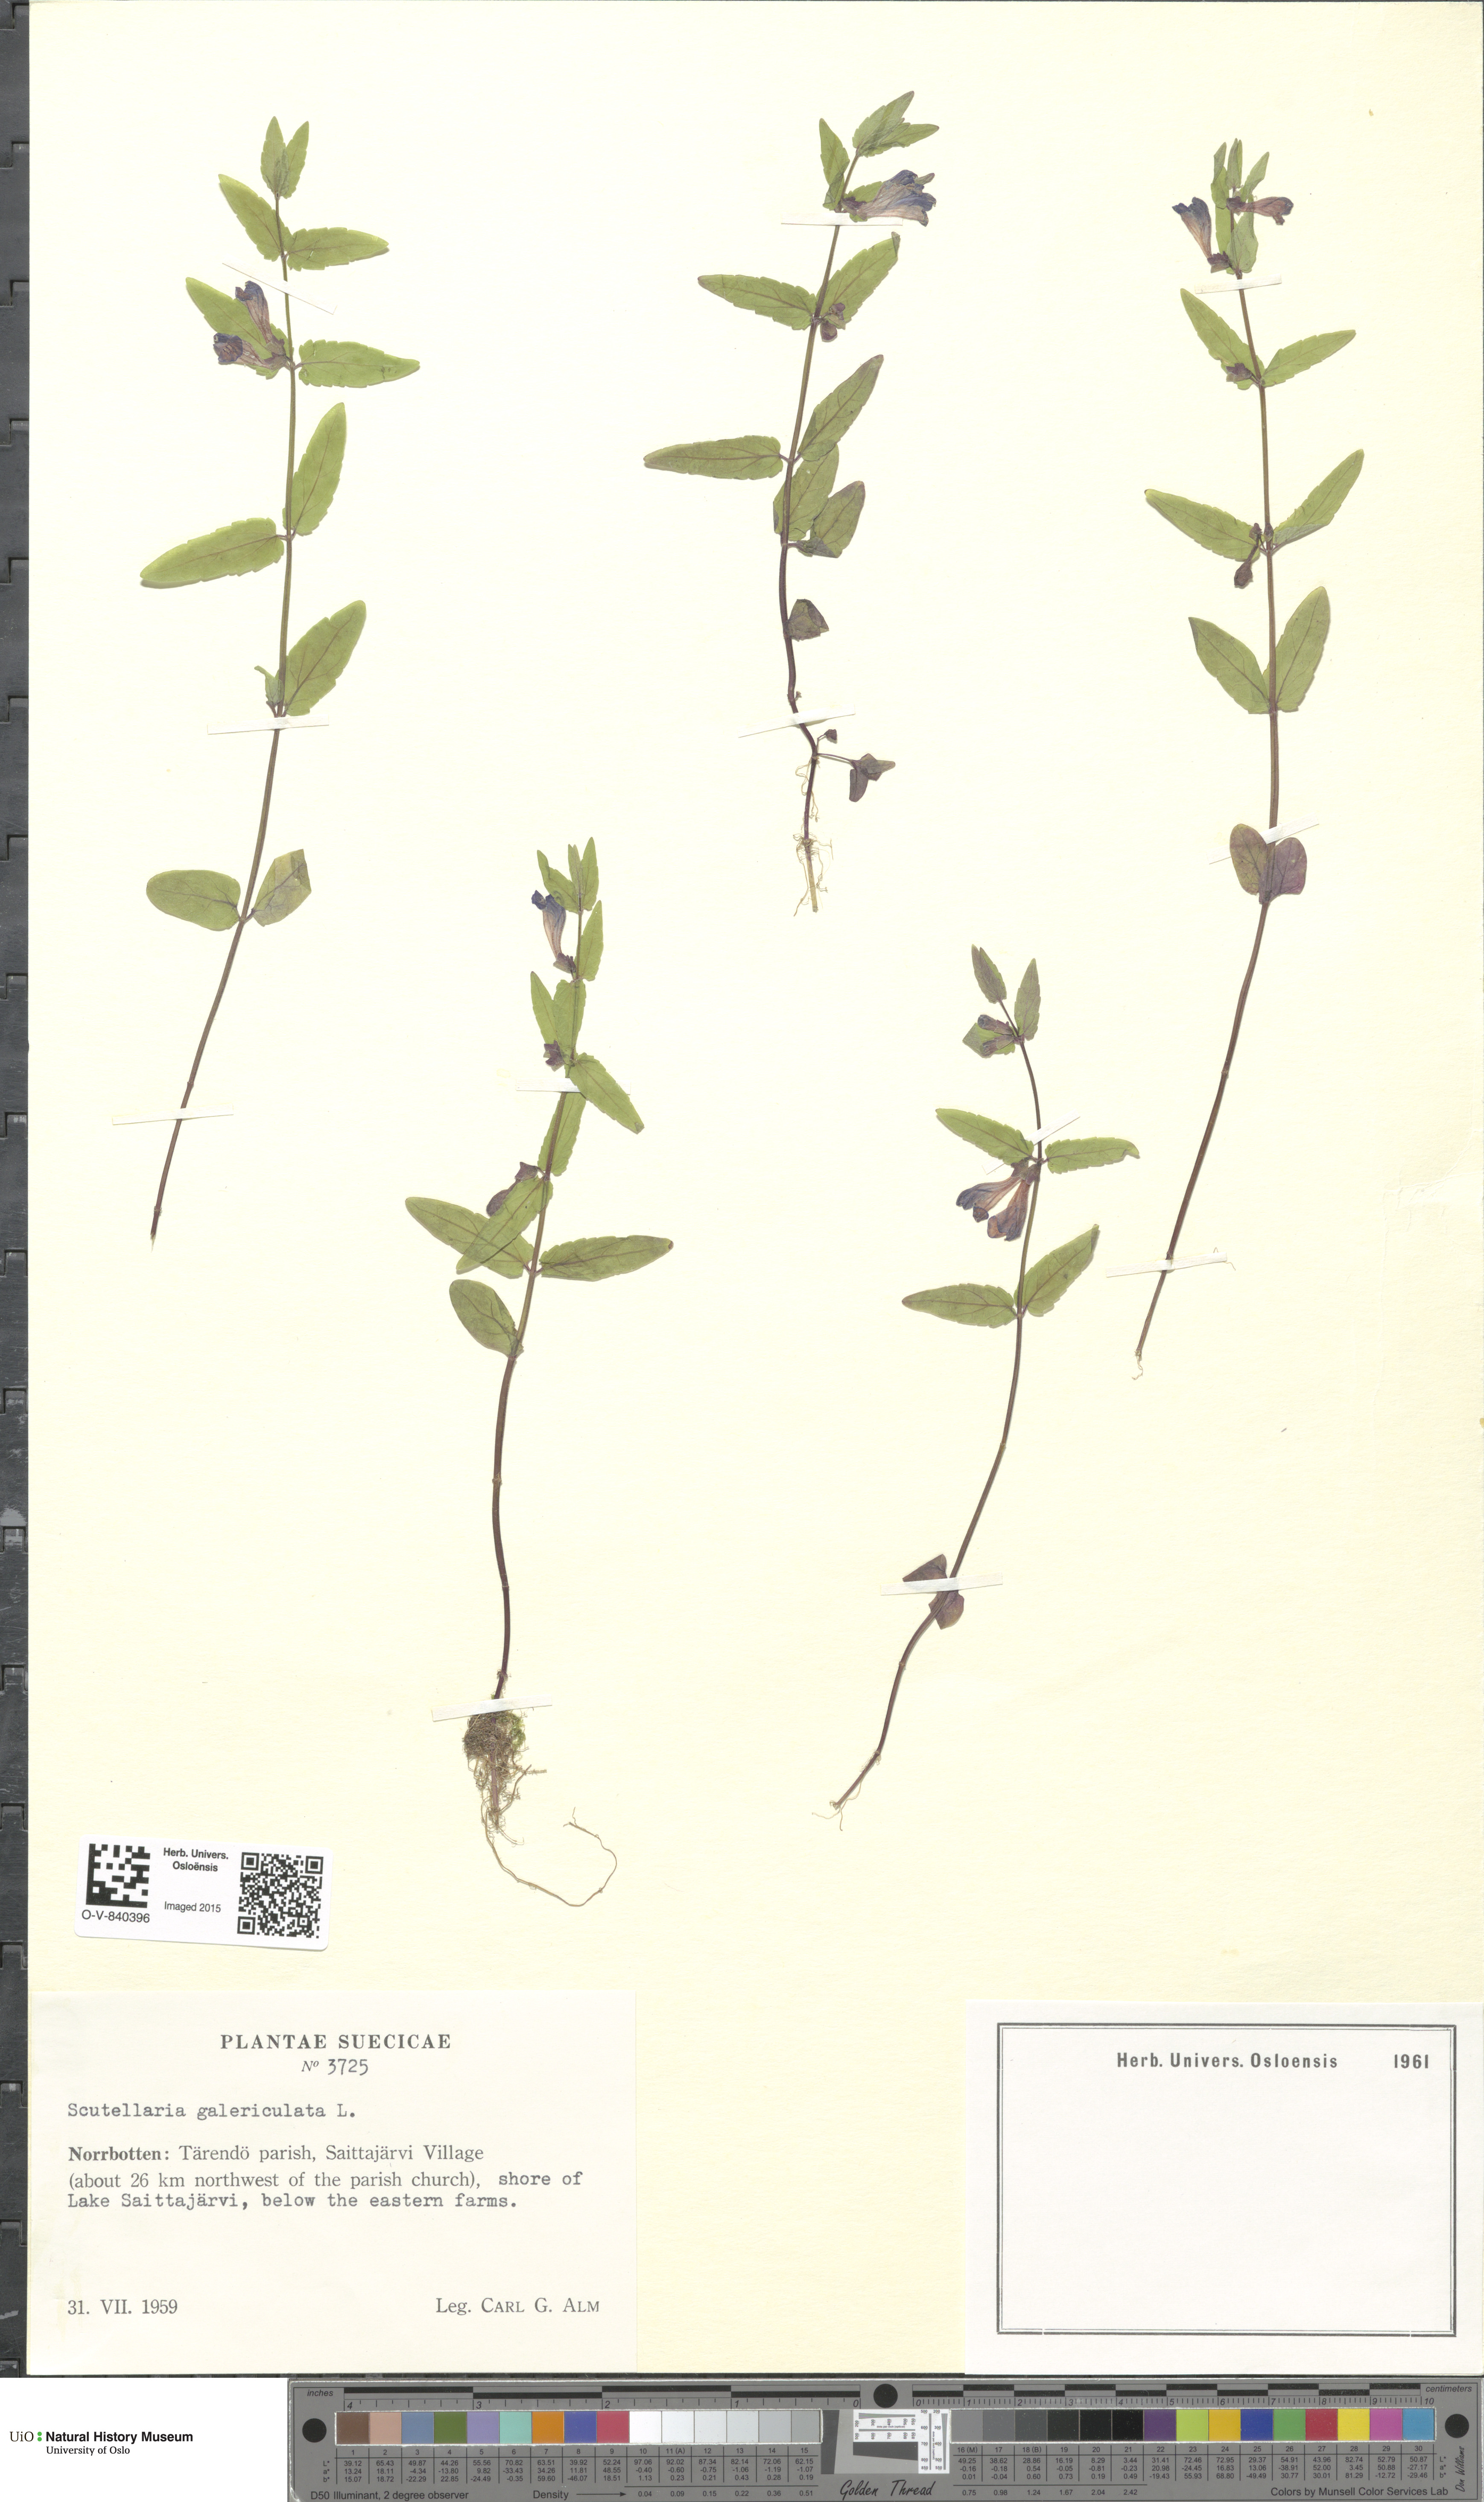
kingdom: Plantae
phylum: Tracheophyta
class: Magnoliopsida
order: Lamiales
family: Lamiaceae
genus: Scutellaria
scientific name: Scutellaria galericulata
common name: Skullcap
